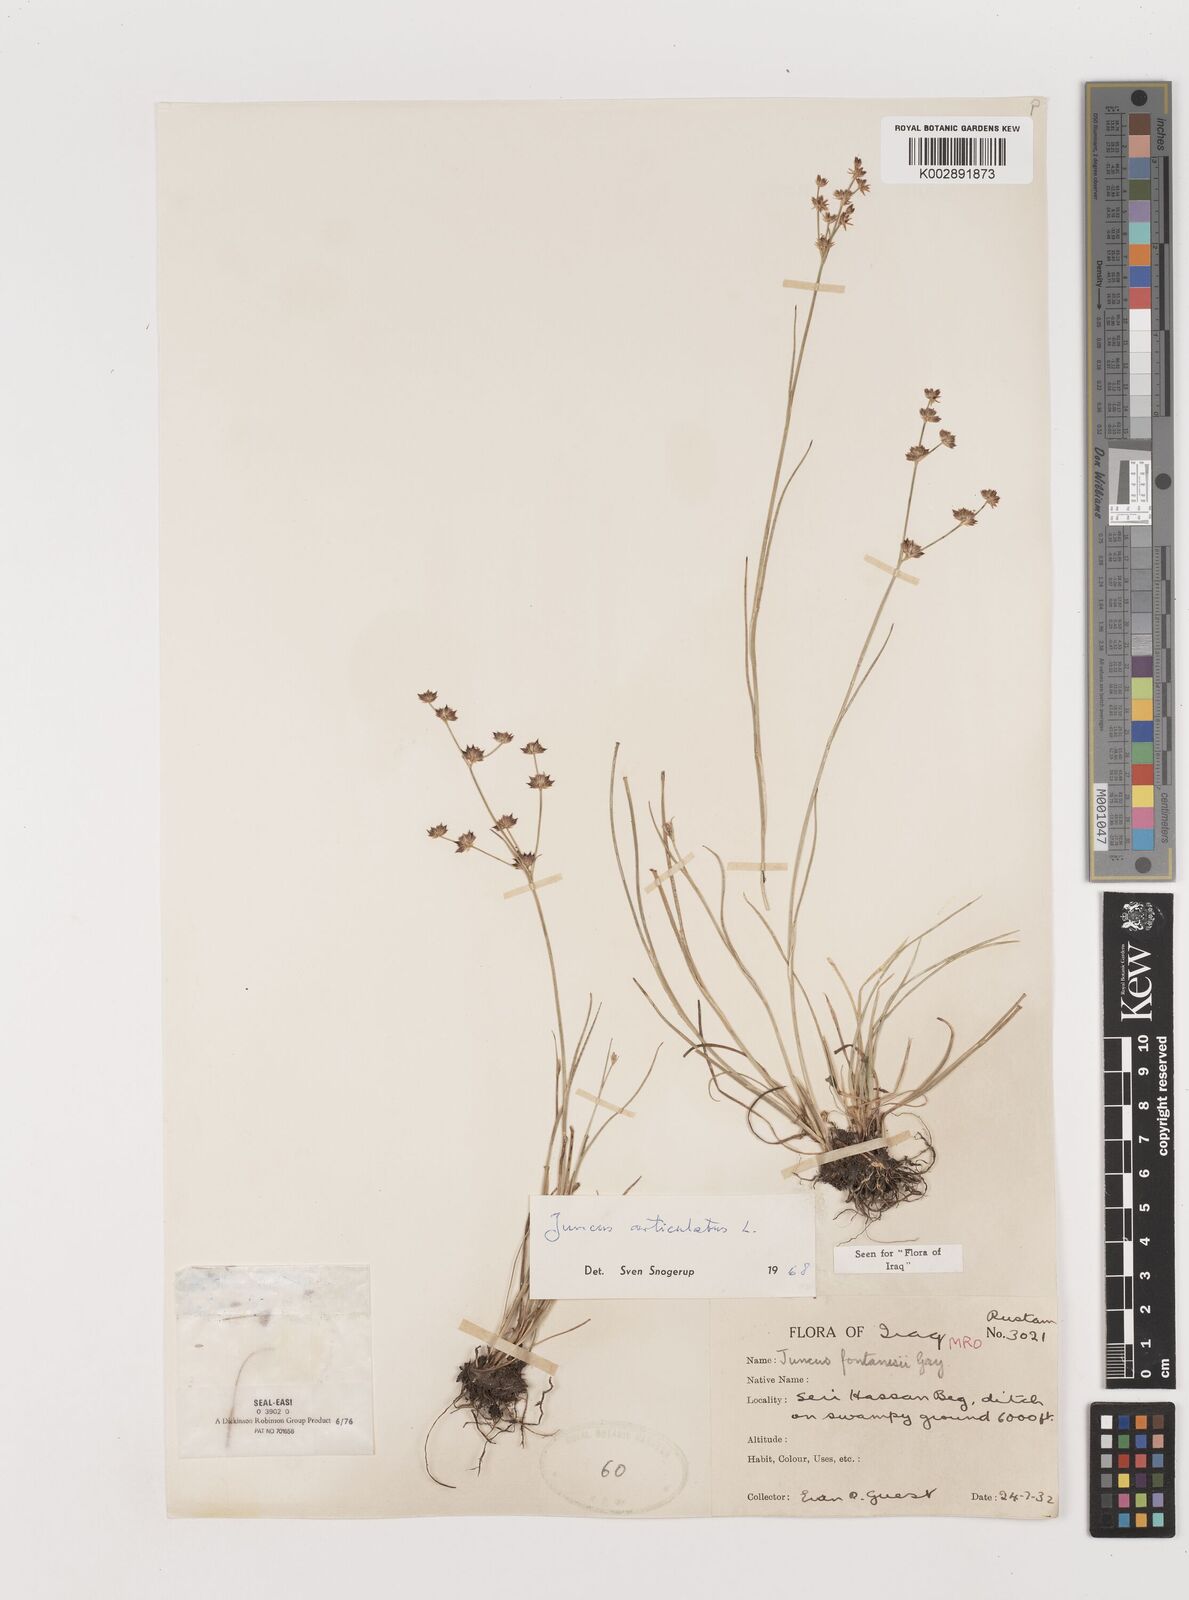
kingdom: Plantae
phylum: Tracheophyta
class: Liliopsida
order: Poales
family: Juncaceae
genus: Juncus
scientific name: Juncus articulatus
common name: Jointed rush
